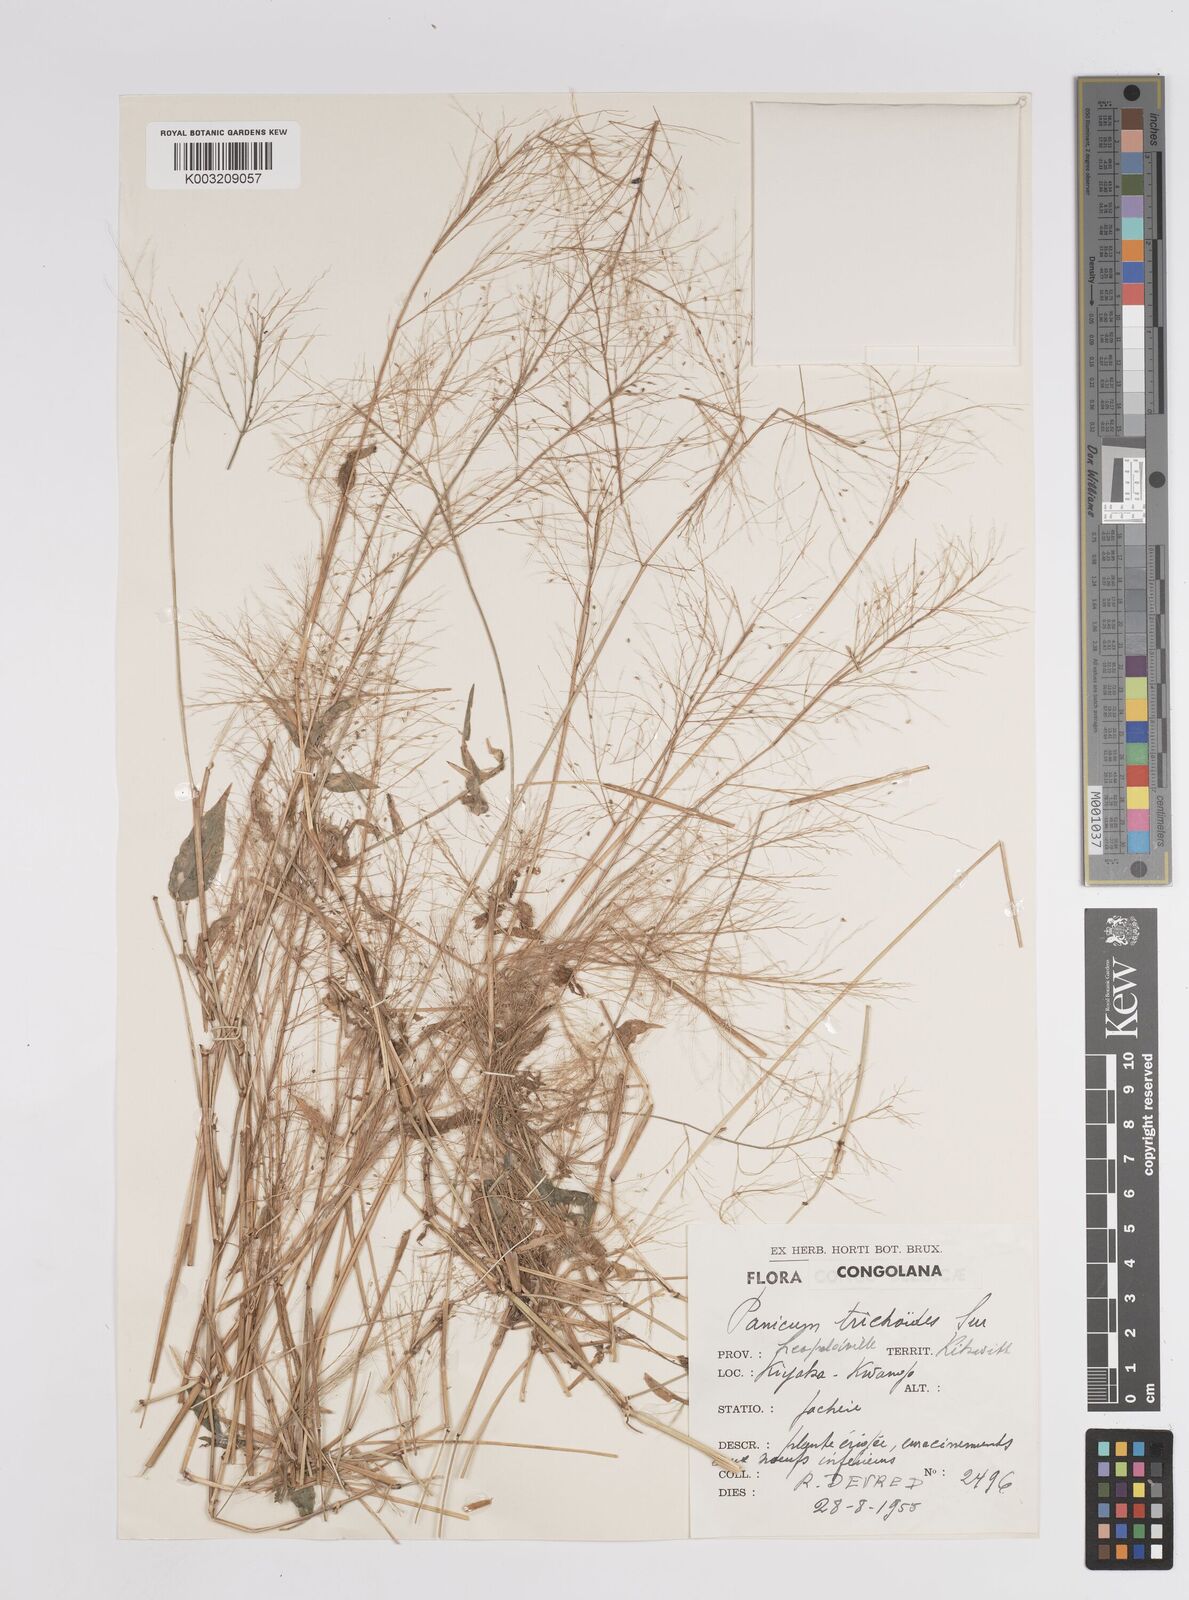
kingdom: Plantae
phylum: Tracheophyta
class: Liliopsida
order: Poales
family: Poaceae
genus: Panicum
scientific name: Panicum trichoides
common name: Tickle grass
